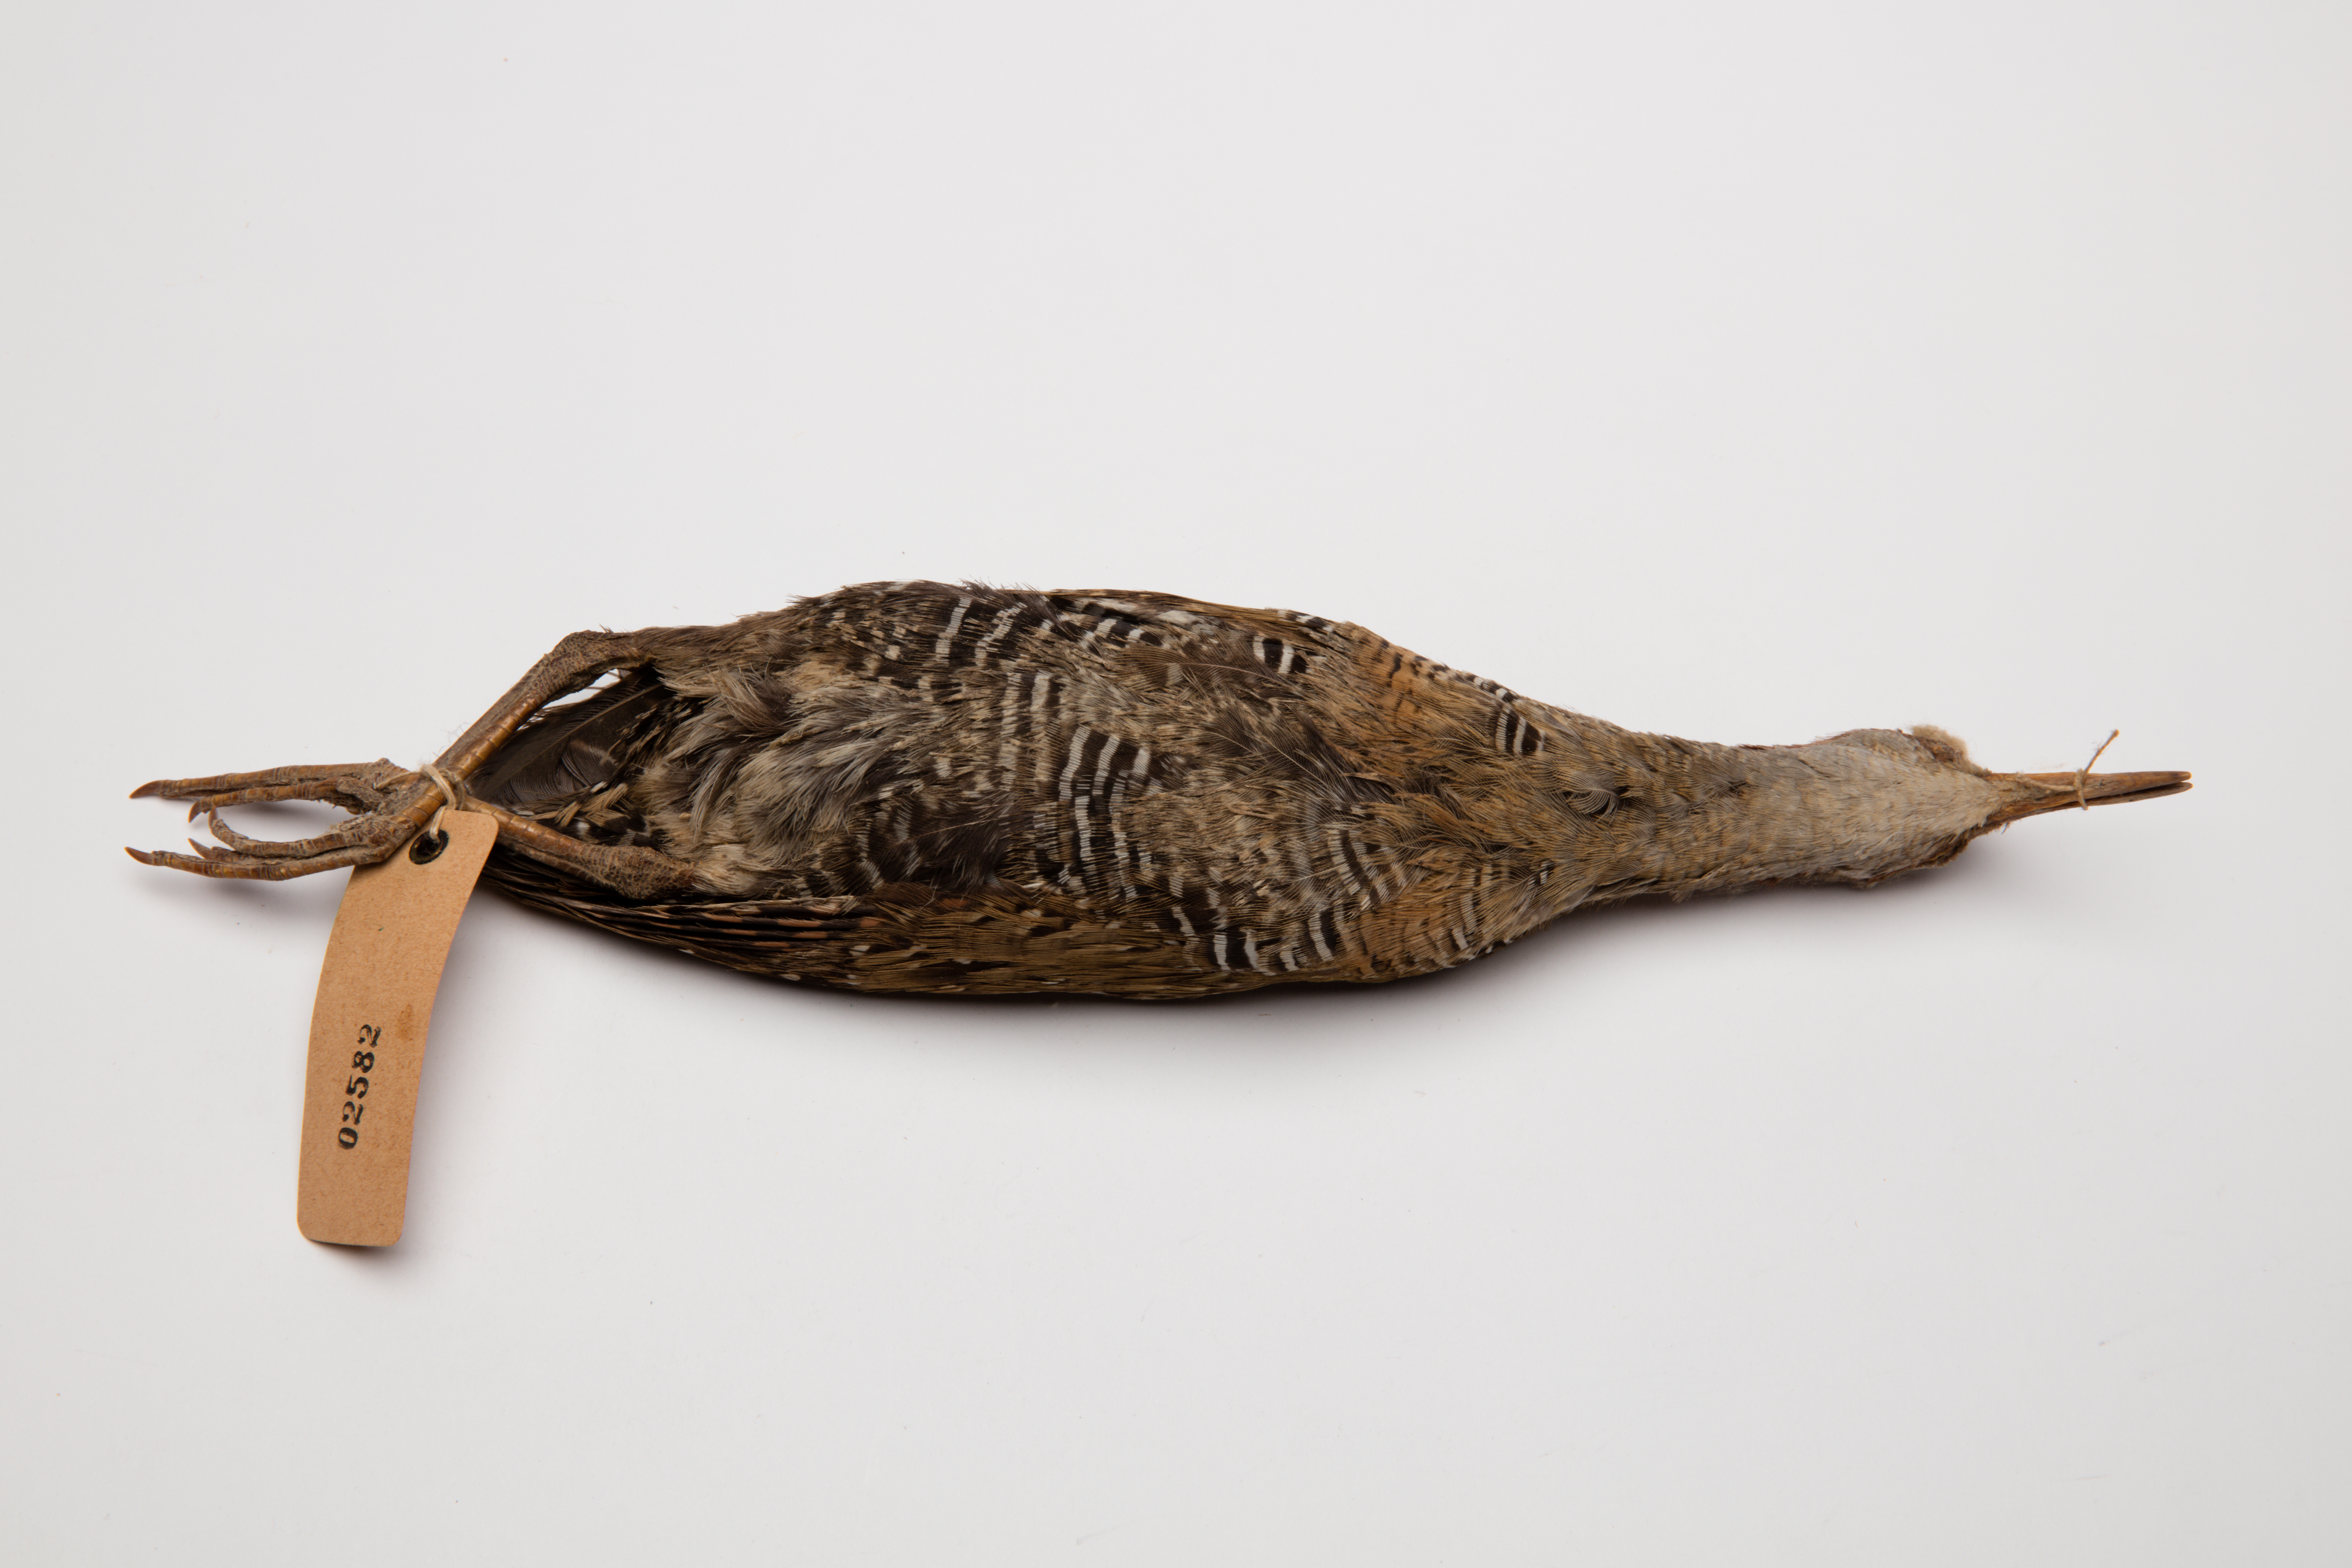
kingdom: Animalia
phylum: Chordata
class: Aves
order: Gruiformes
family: Rallidae
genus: Gallirallus
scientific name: Gallirallus philippensis
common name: Buff-banded rail
